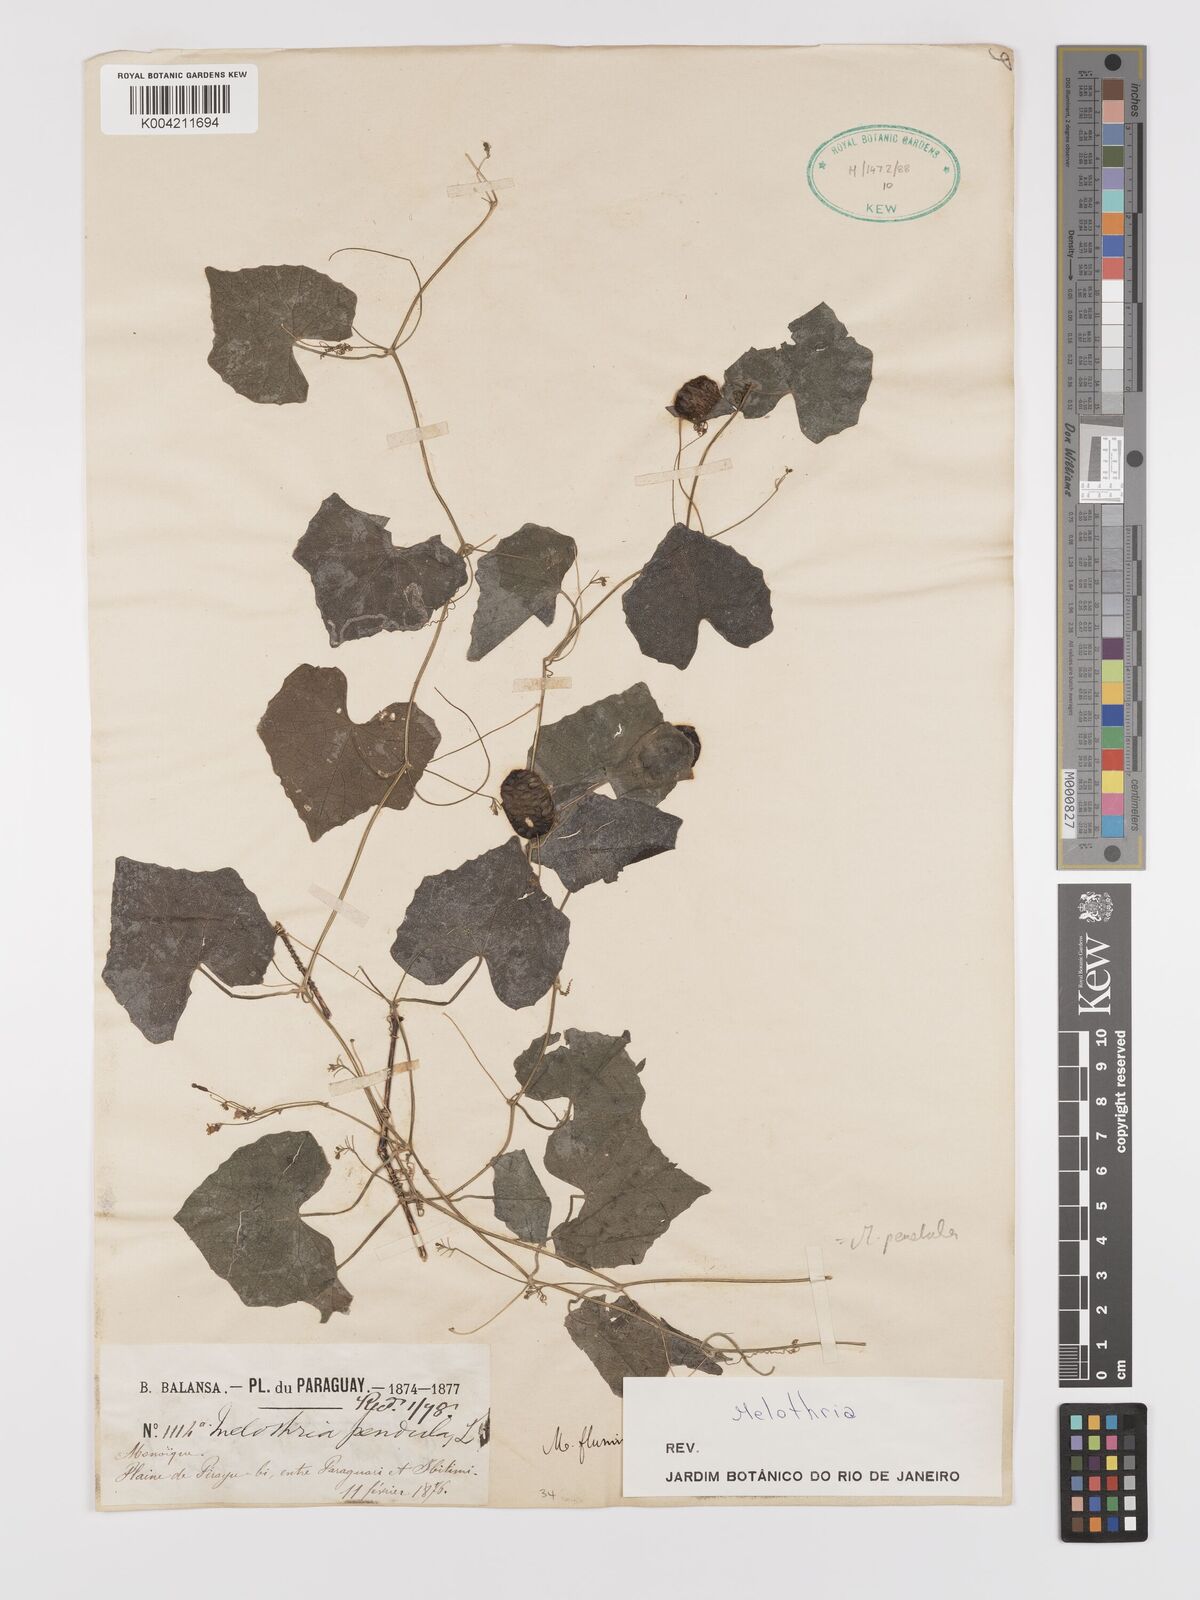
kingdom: Plantae
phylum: Tracheophyta
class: Magnoliopsida
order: Cucurbitales
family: Cucurbitaceae
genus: Melothria
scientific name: Melothria
